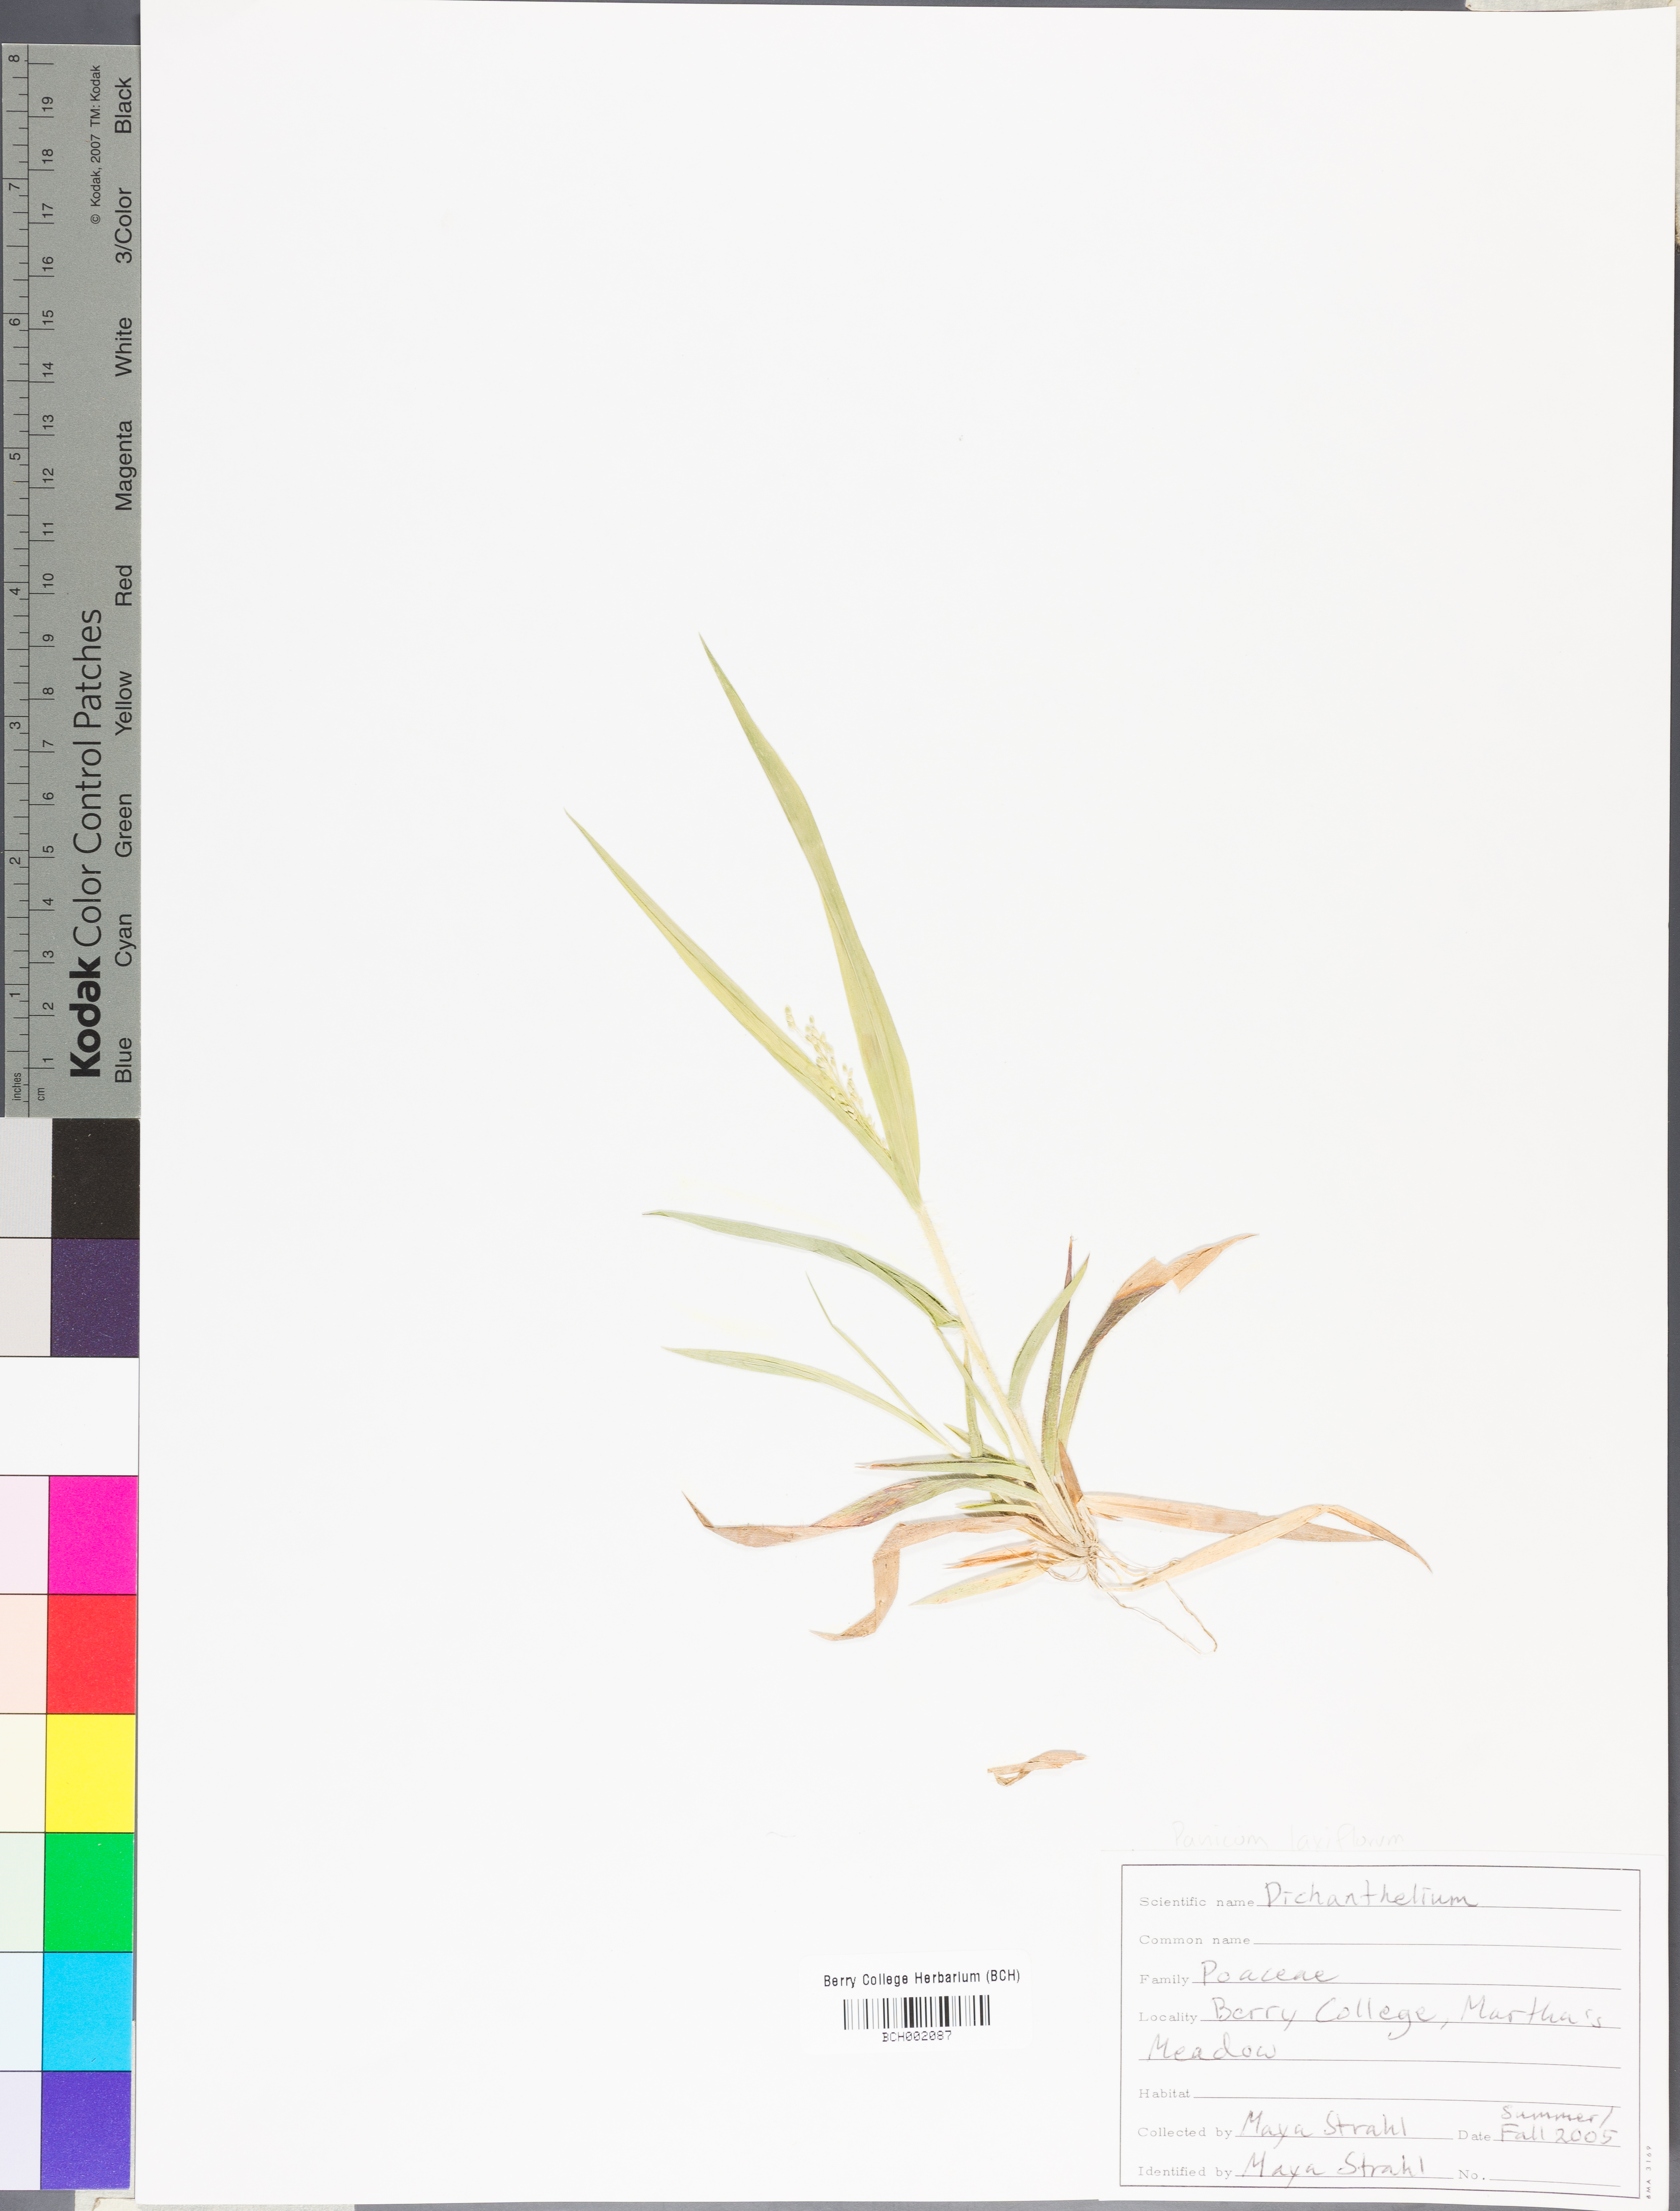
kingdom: Plantae
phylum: Tracheophyta
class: Liliopsida
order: Poales
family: Poaceae
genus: Dichanthelium
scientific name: Dichanthelium
